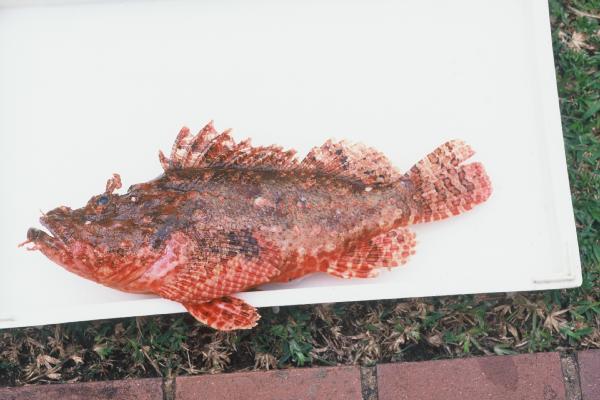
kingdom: Animalia
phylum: Chordata
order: Scorpaeniformes
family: Scorpaenidae
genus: Scorpaenopsis
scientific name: Scorpaenopsis oxycephala
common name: Smallscale scorpionfish
